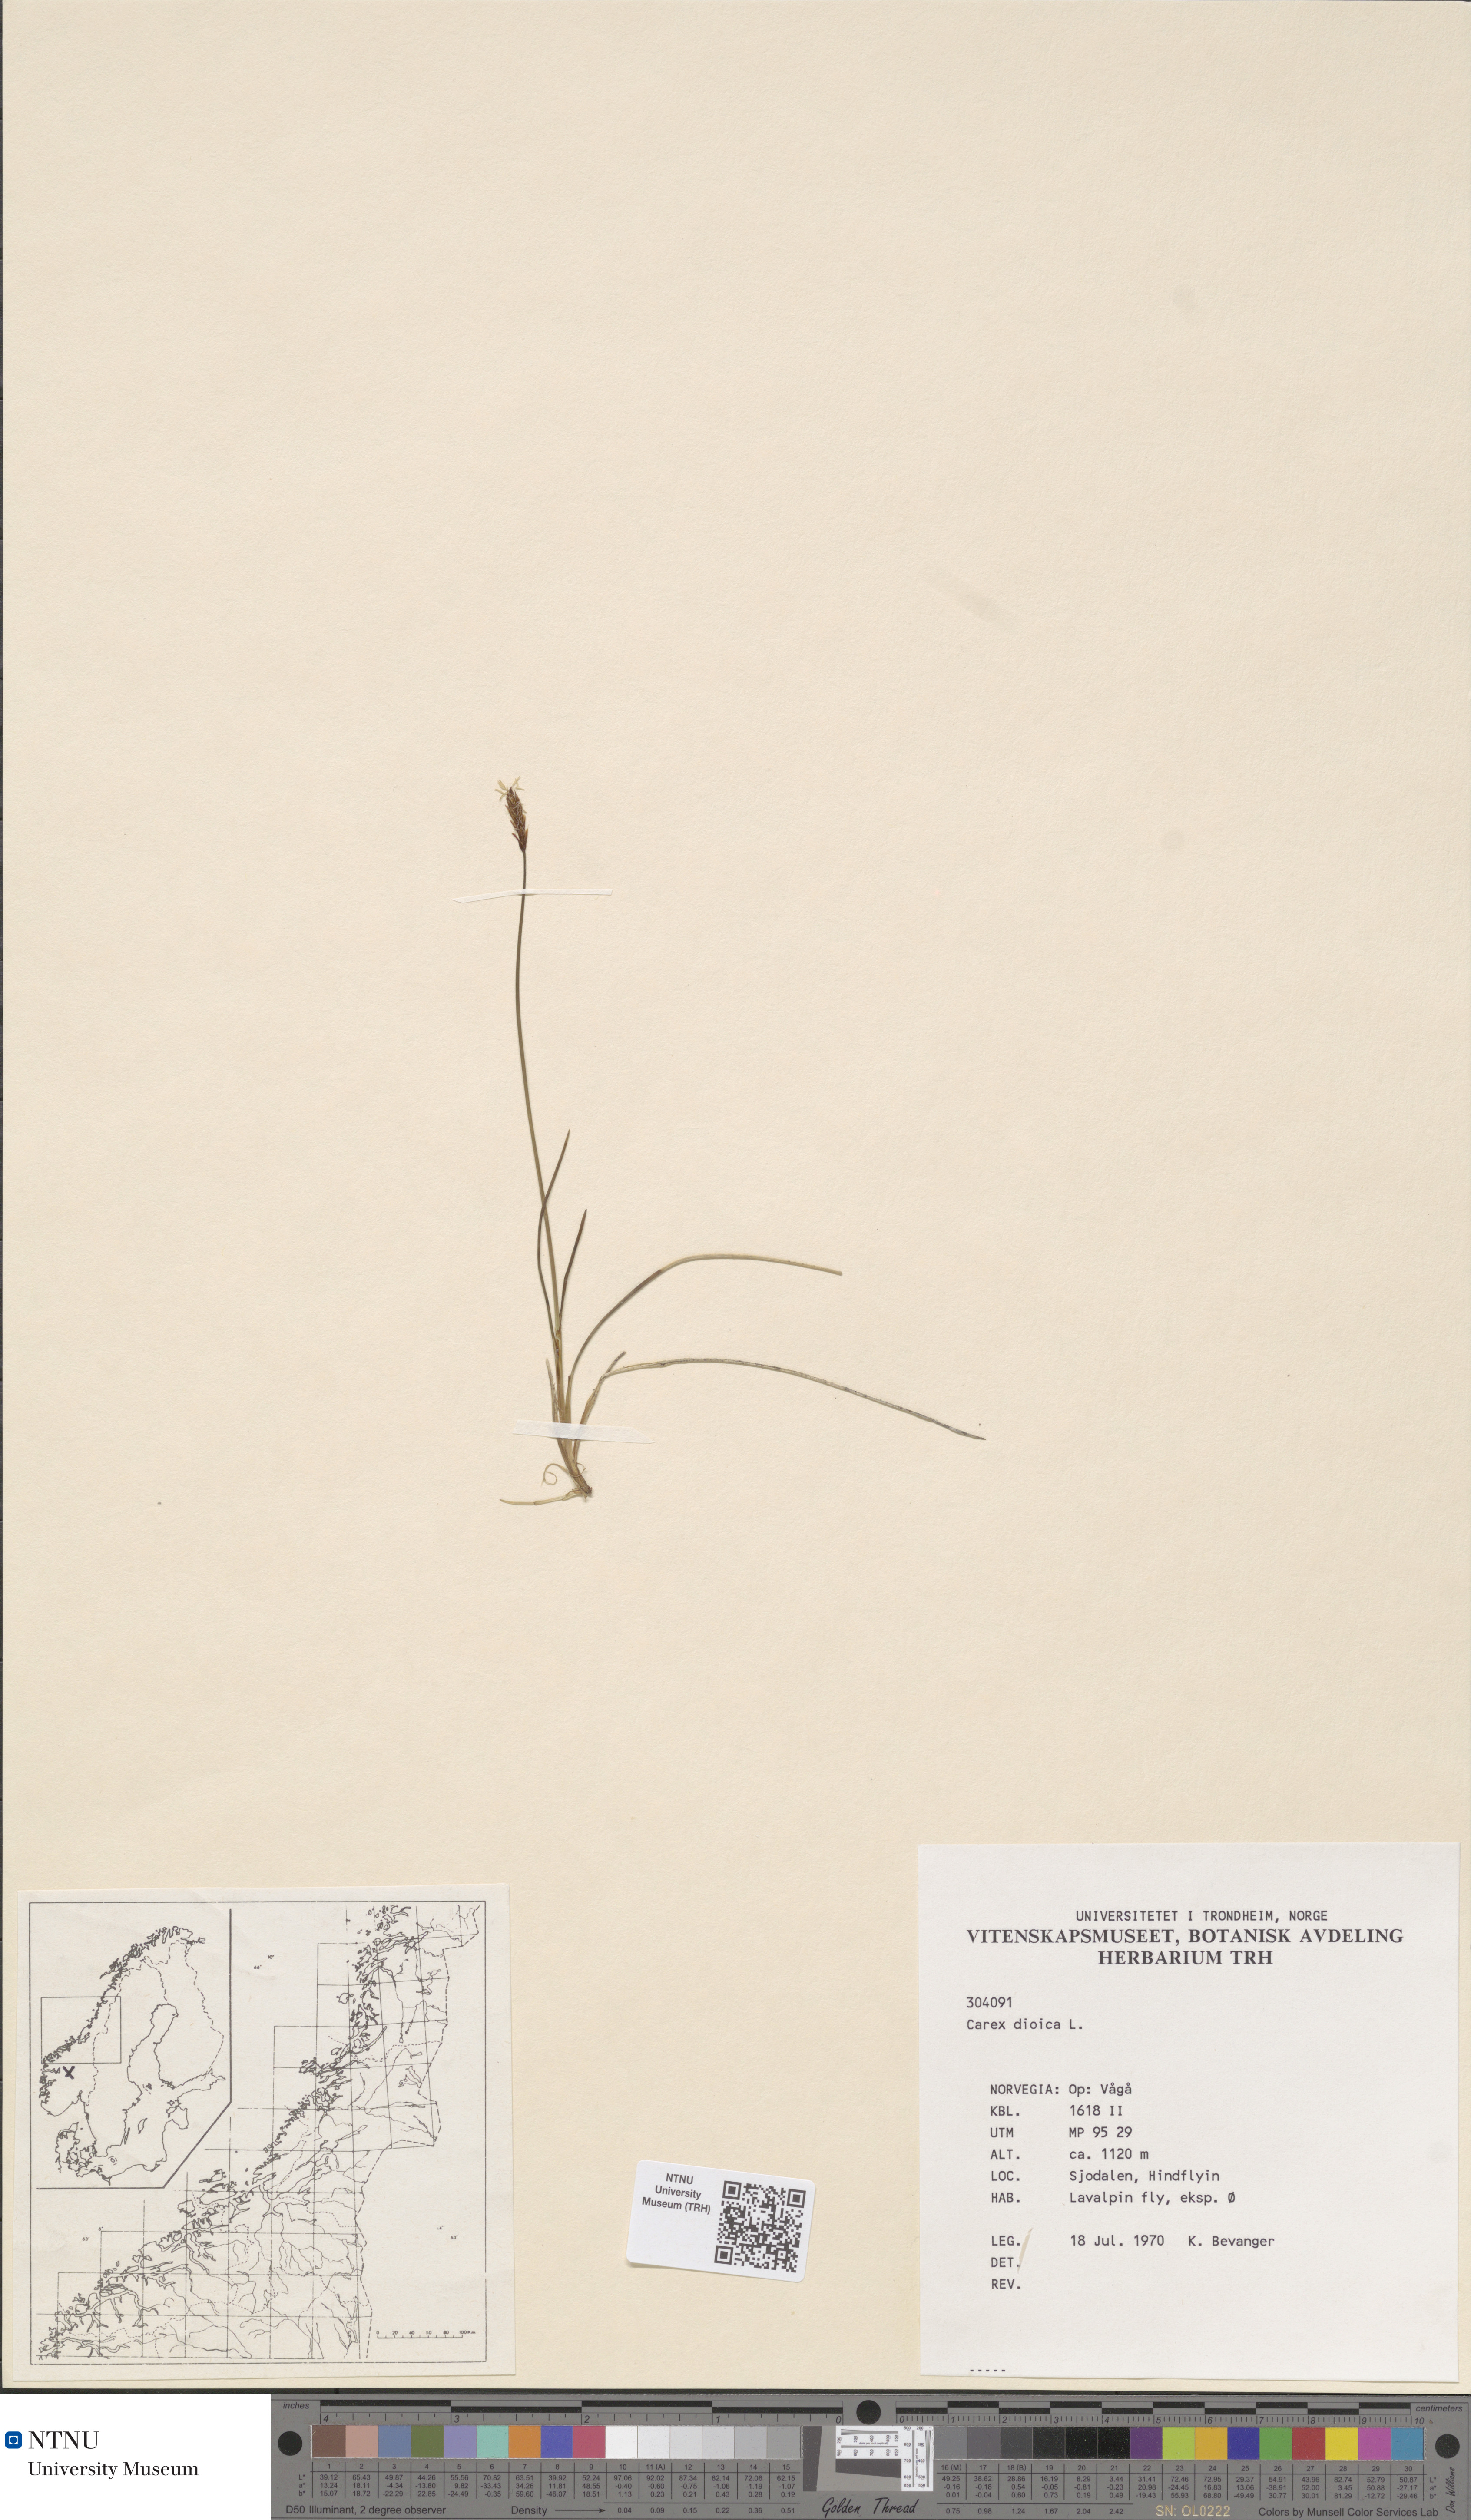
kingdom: Plantae
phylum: Tracheophyta
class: Liliopsida
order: Poales
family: Cyperaceae
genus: Carex
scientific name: Carex dioica
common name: Dioecious sedge
